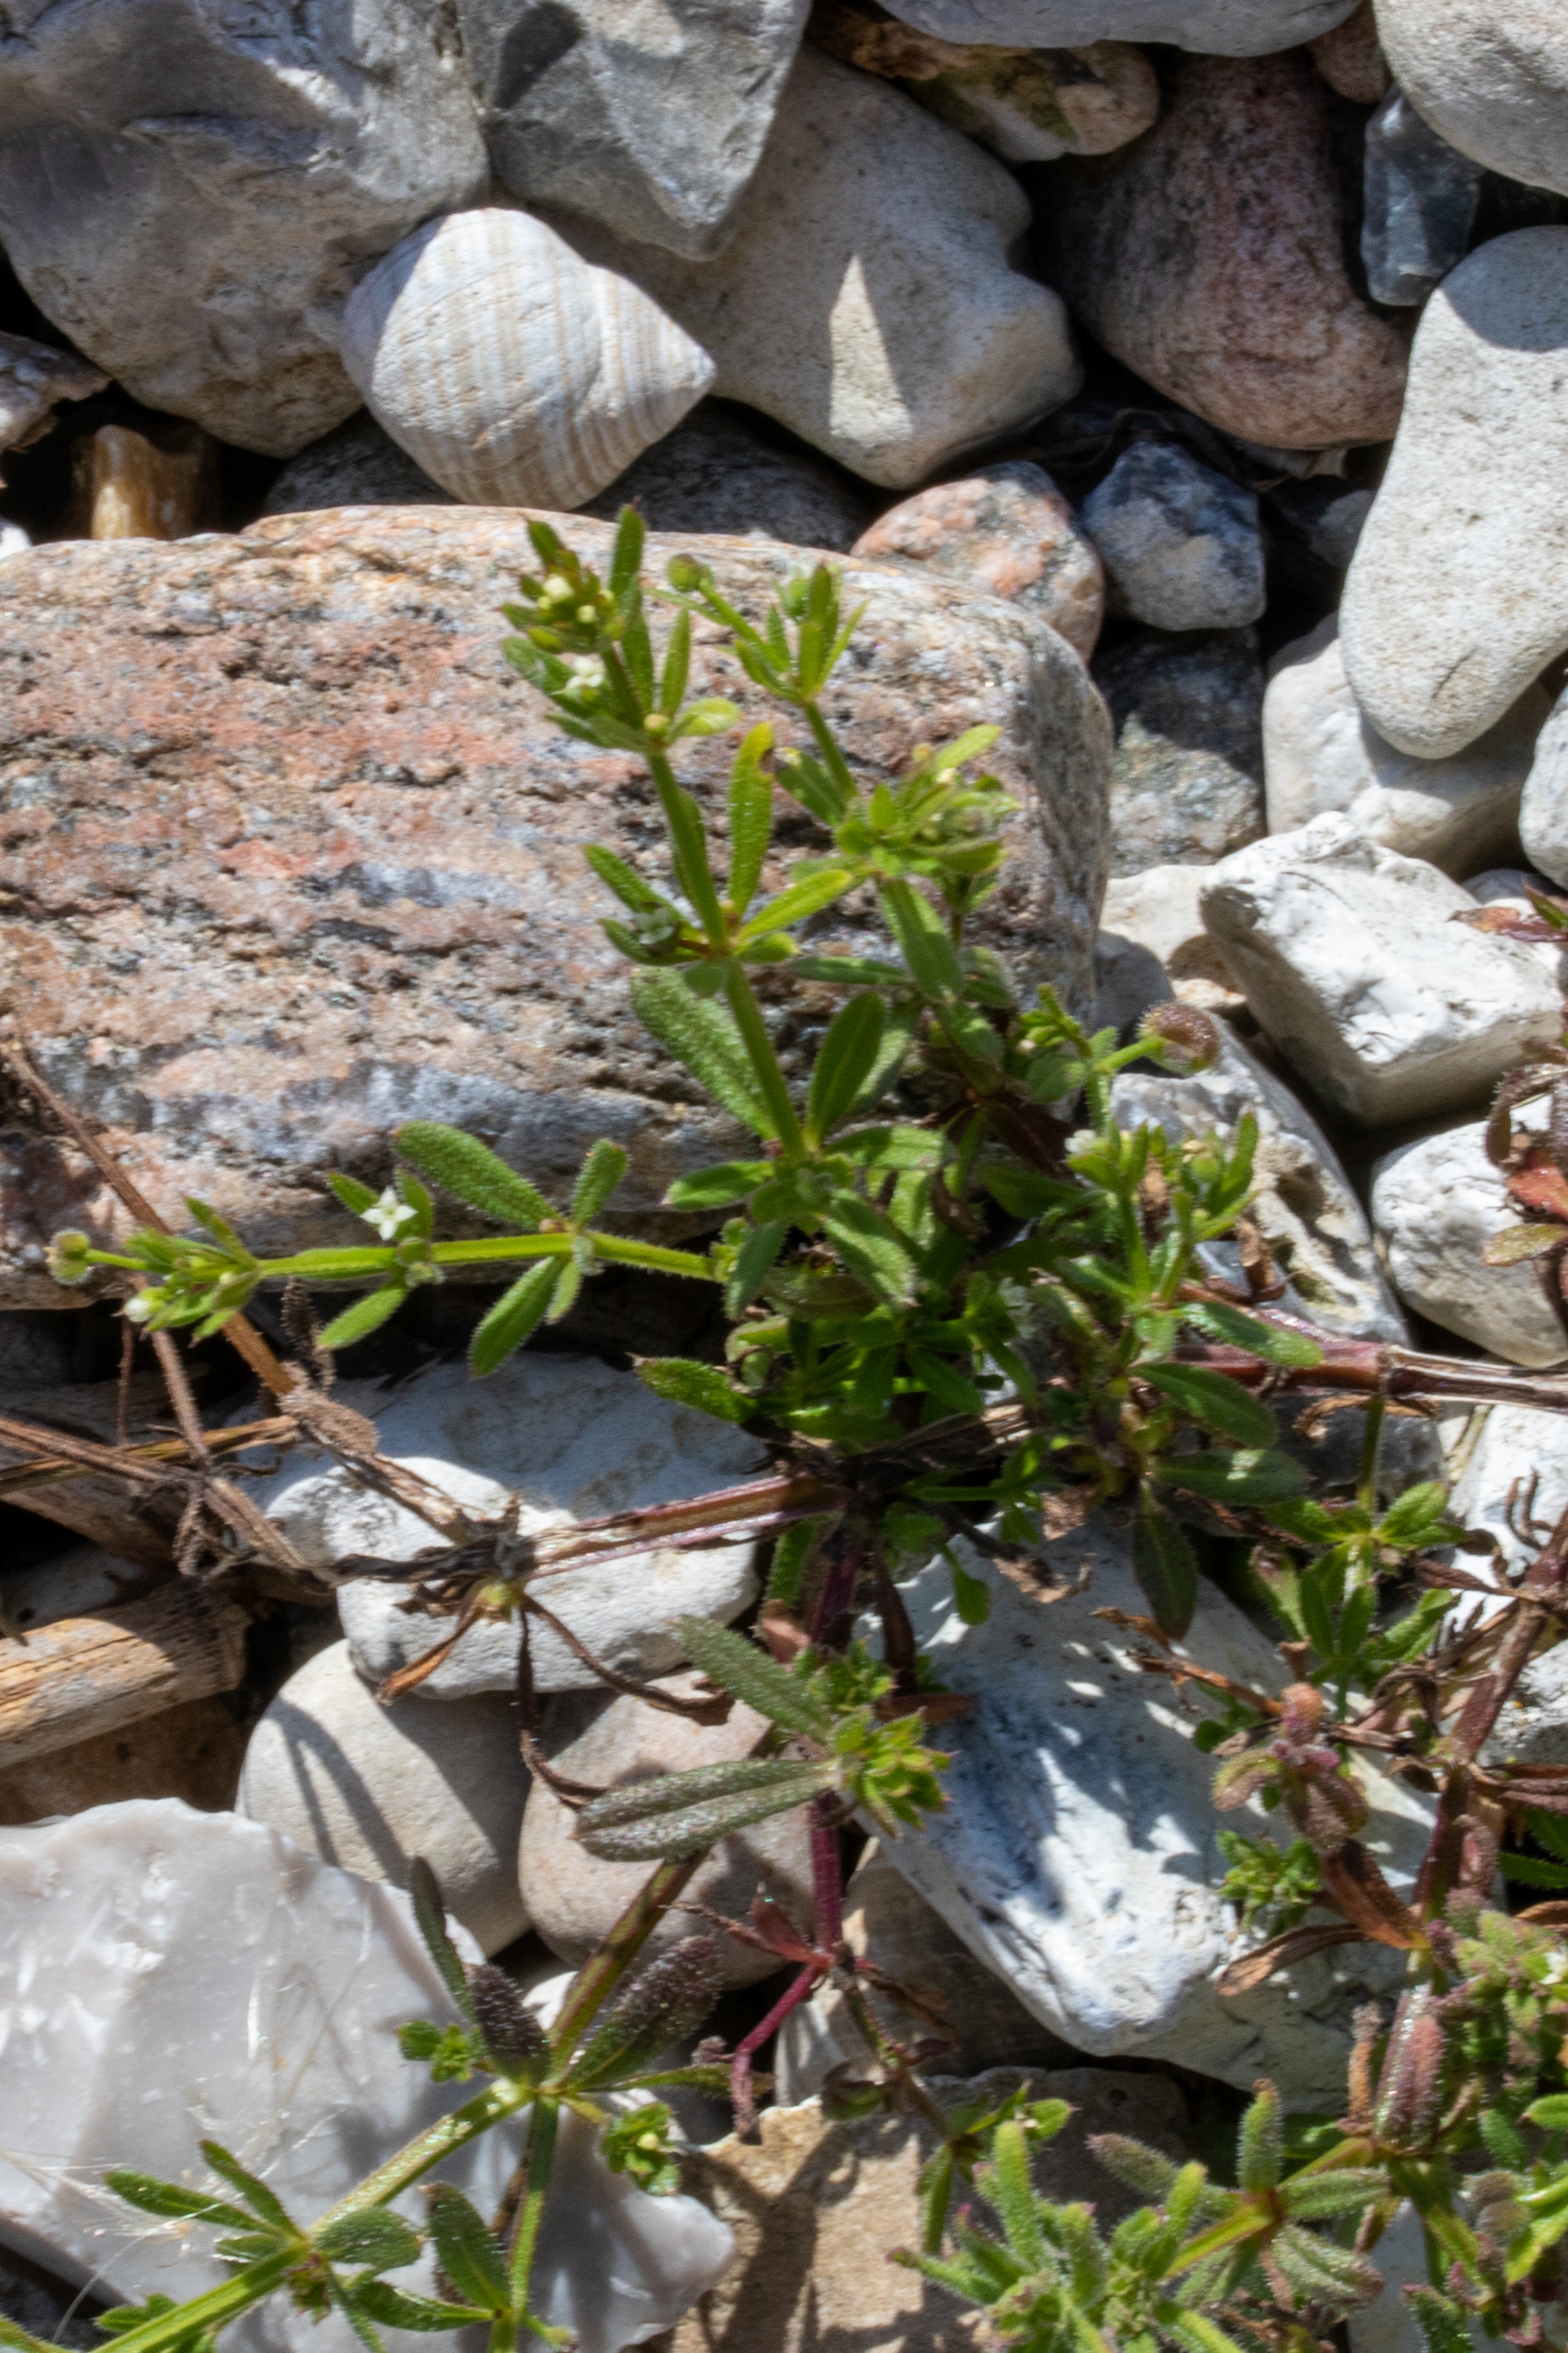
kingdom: Plantae
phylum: Tracheophyta
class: Magnoliopsida
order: Gentianales
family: Rubiaceae
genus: Galium
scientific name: Galium aparine
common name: Burre-snerre
